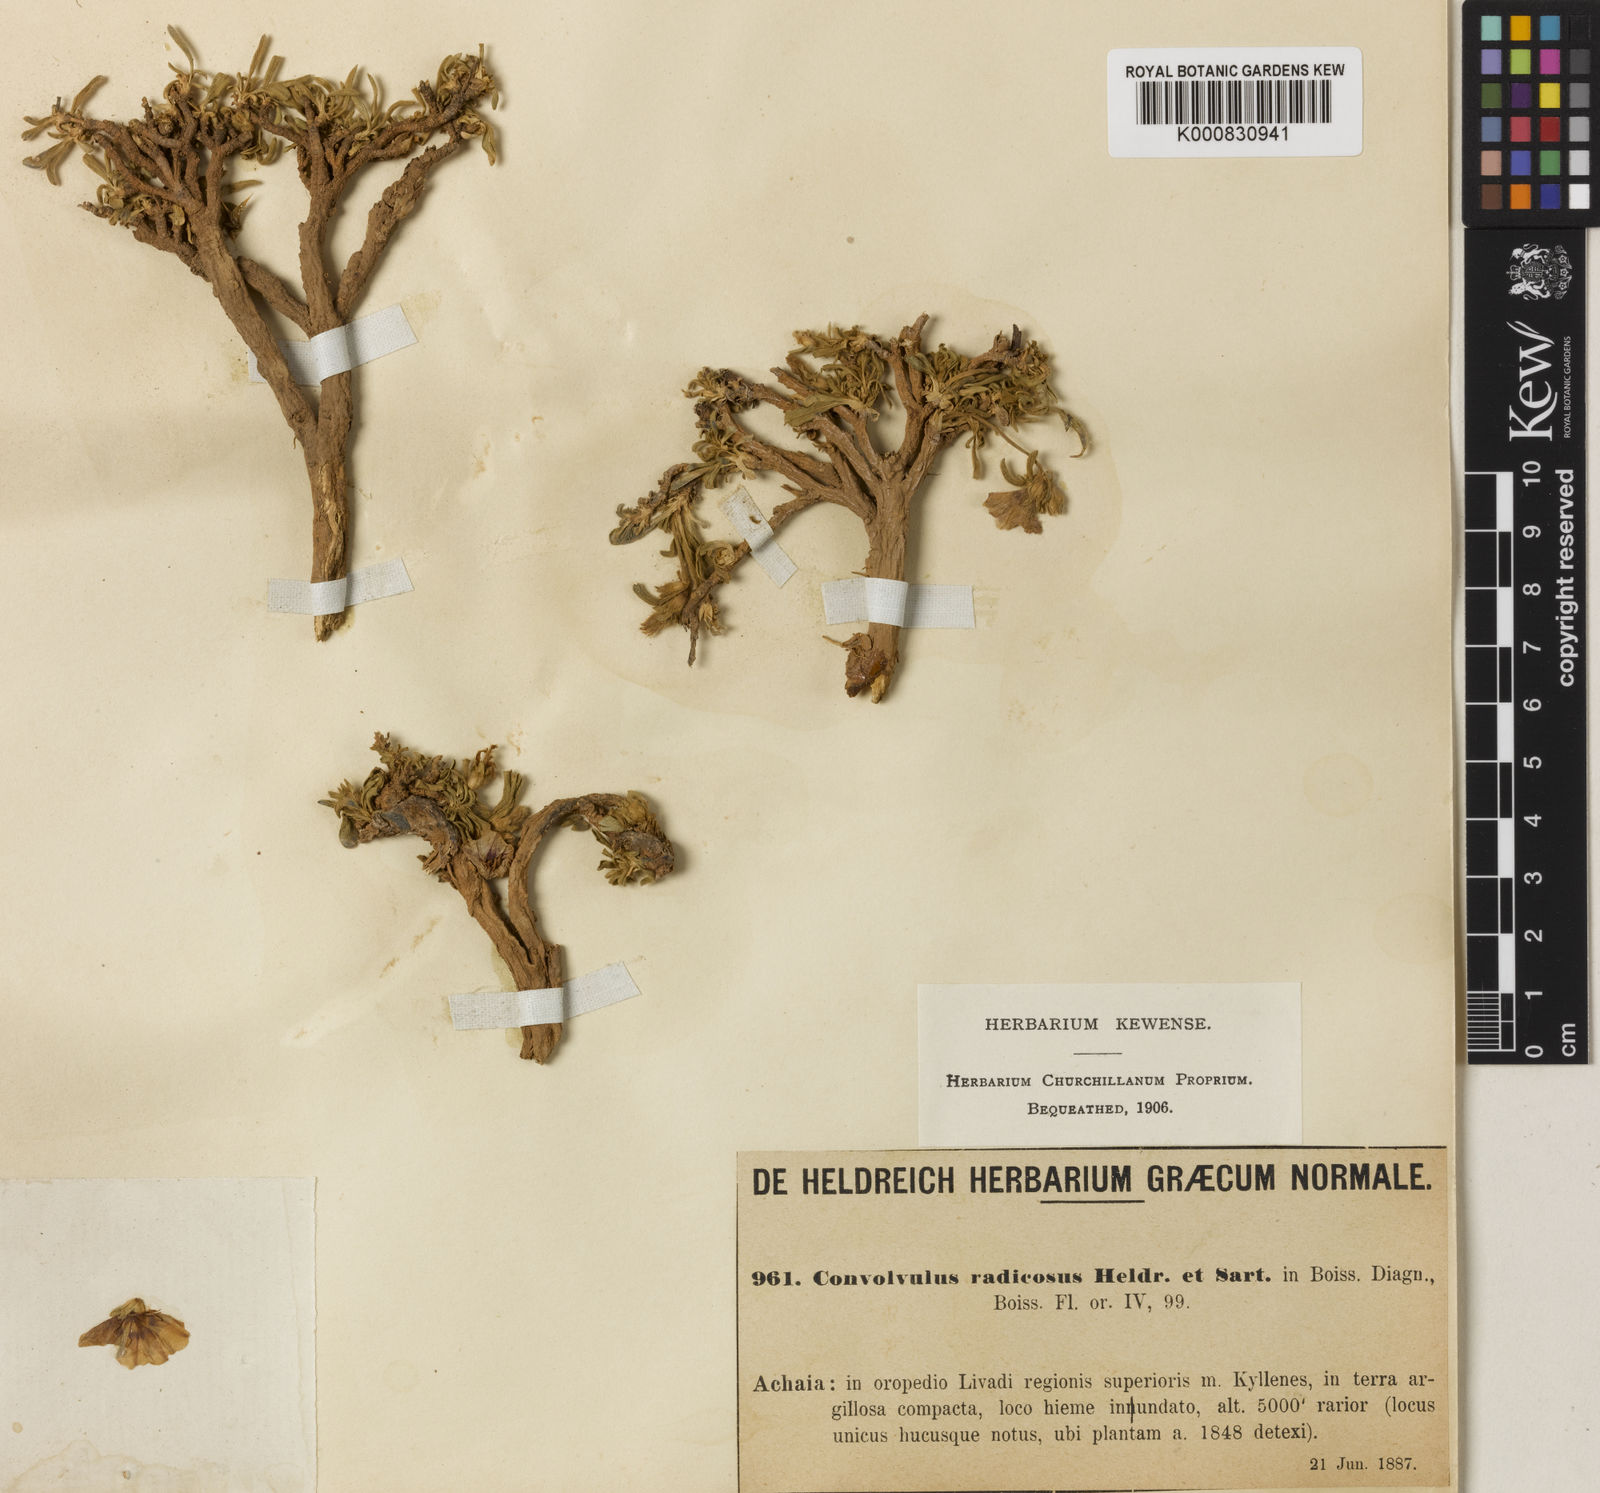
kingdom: Plantae
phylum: Tracheophyta
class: Magnoliopsida
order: Solanales
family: Convolvulaceae
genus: Convolvulus
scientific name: Convolvulus libanoticus
